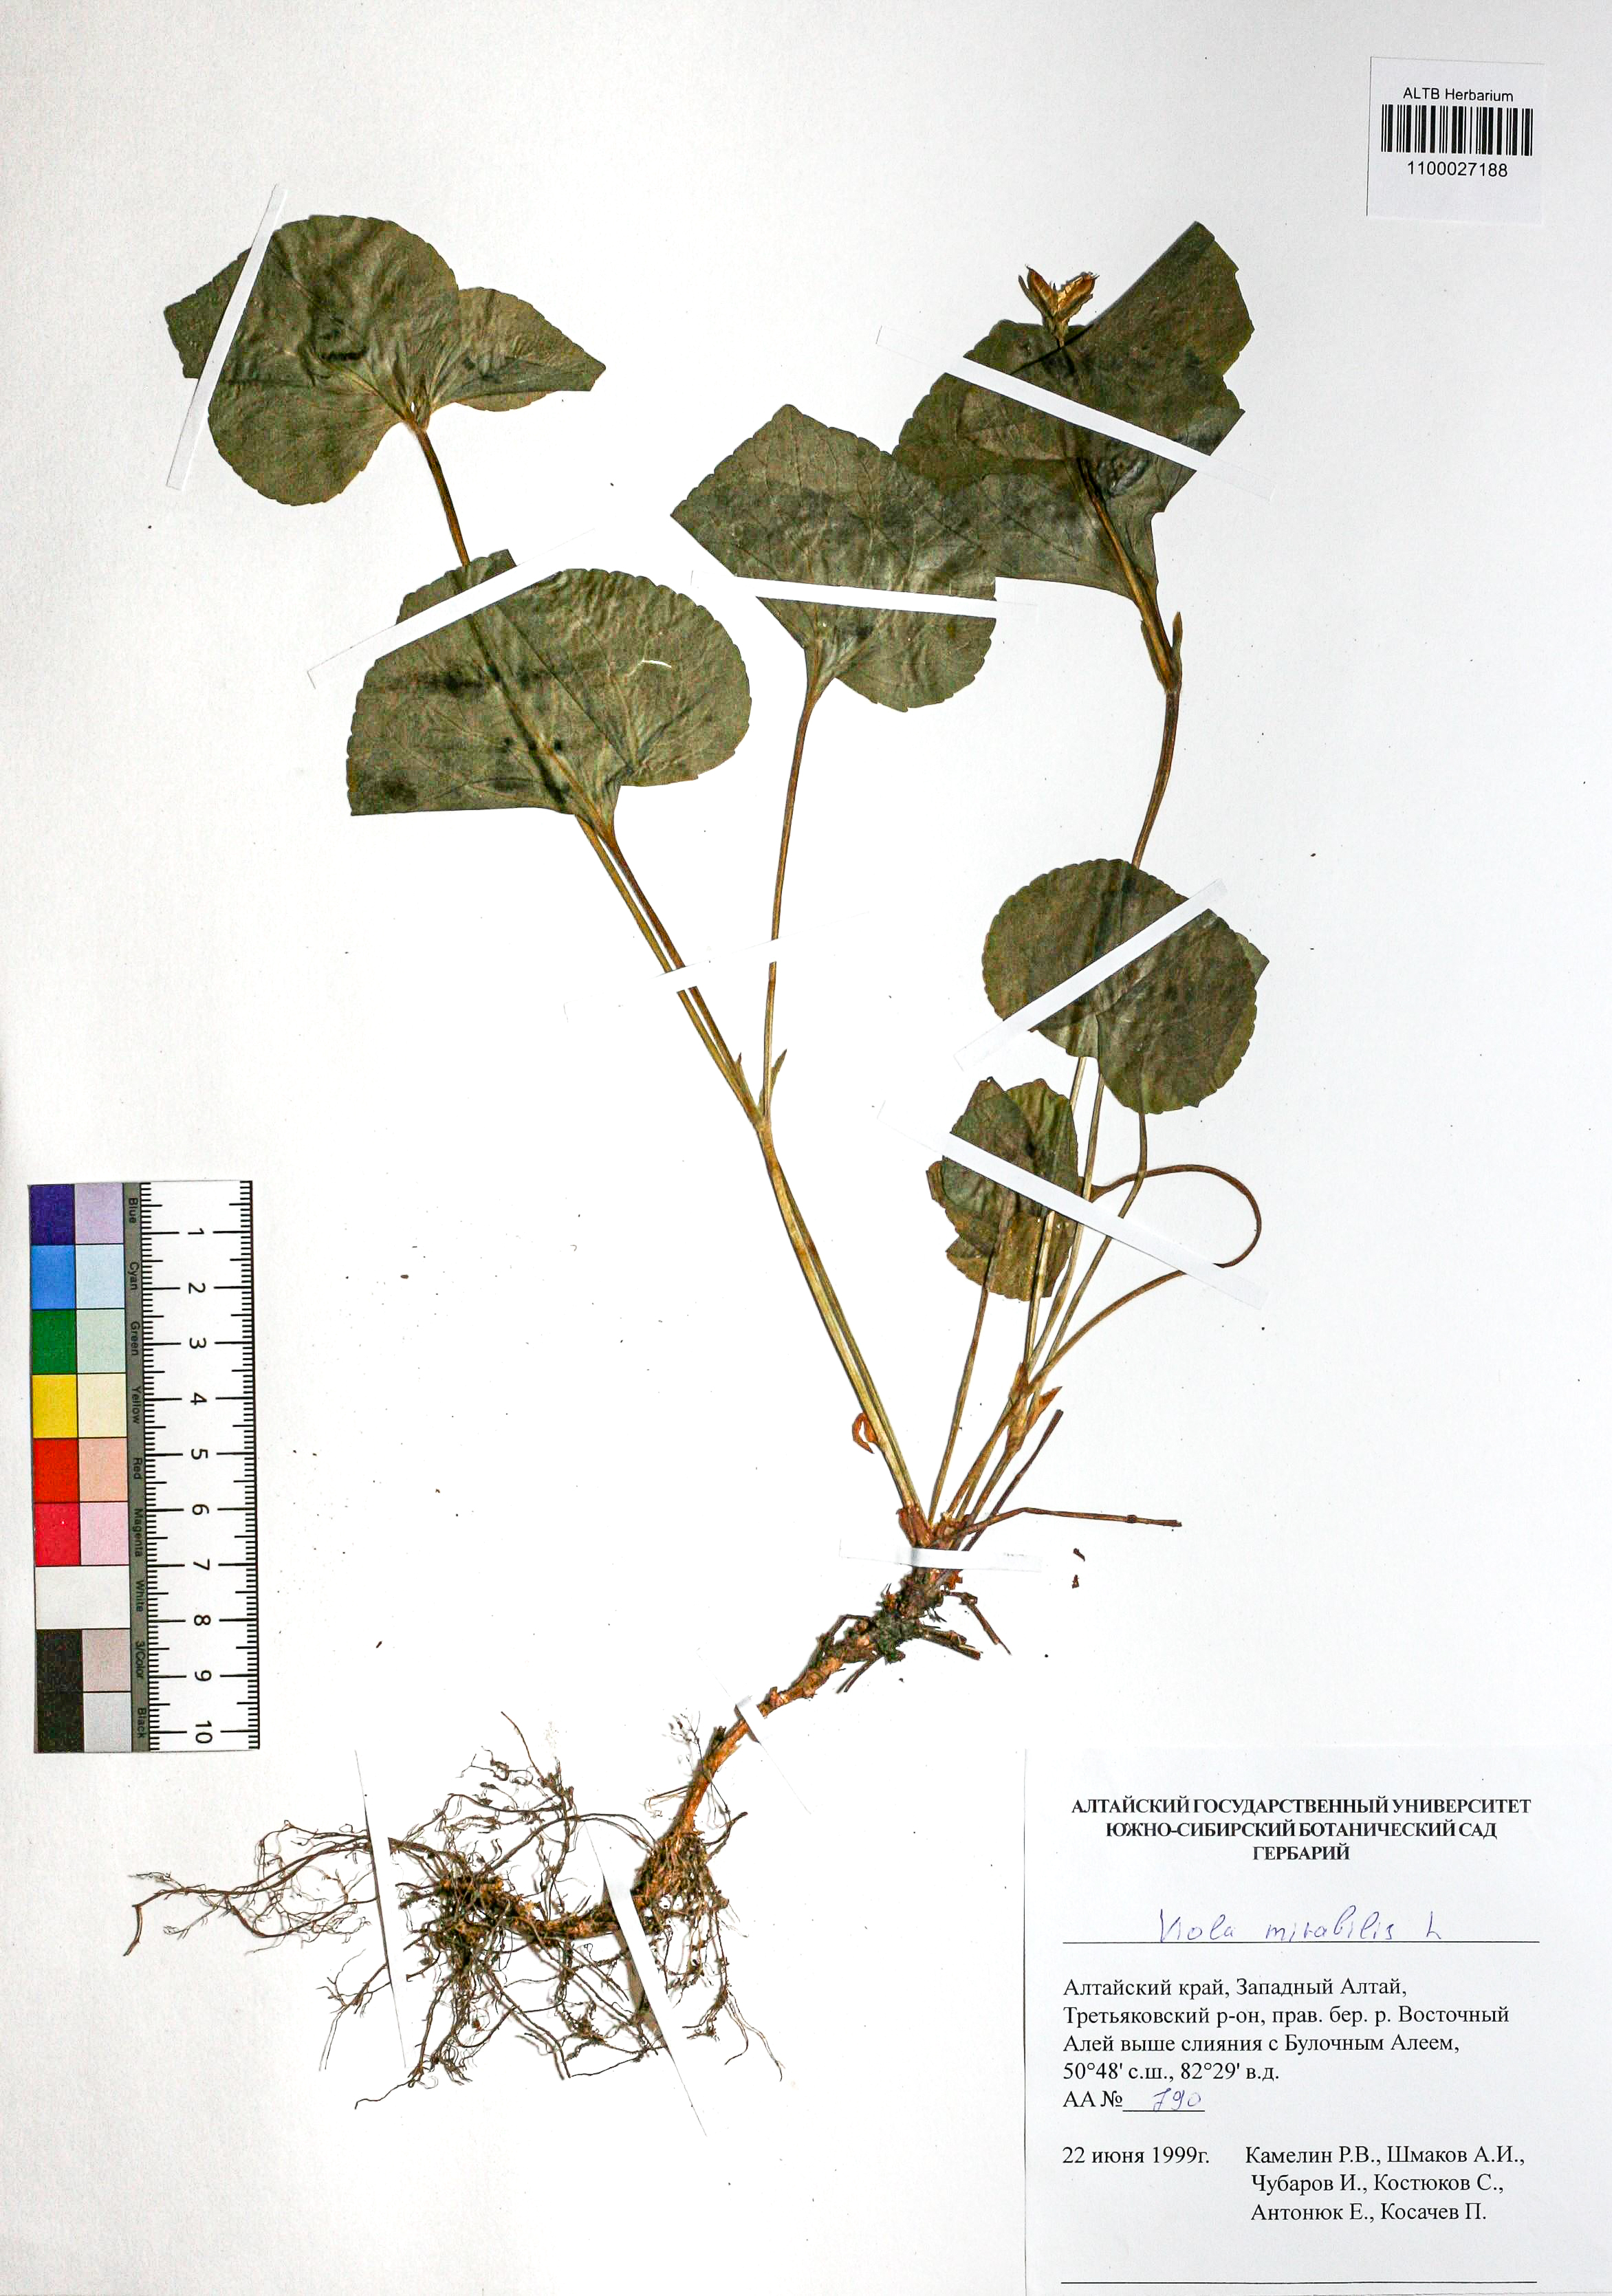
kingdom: Plantae
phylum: Tracheophyta
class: Magnoliopsida
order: Malpighiales
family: Violaceae
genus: Viola
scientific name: Viola mirabilis
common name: Wonder violet
